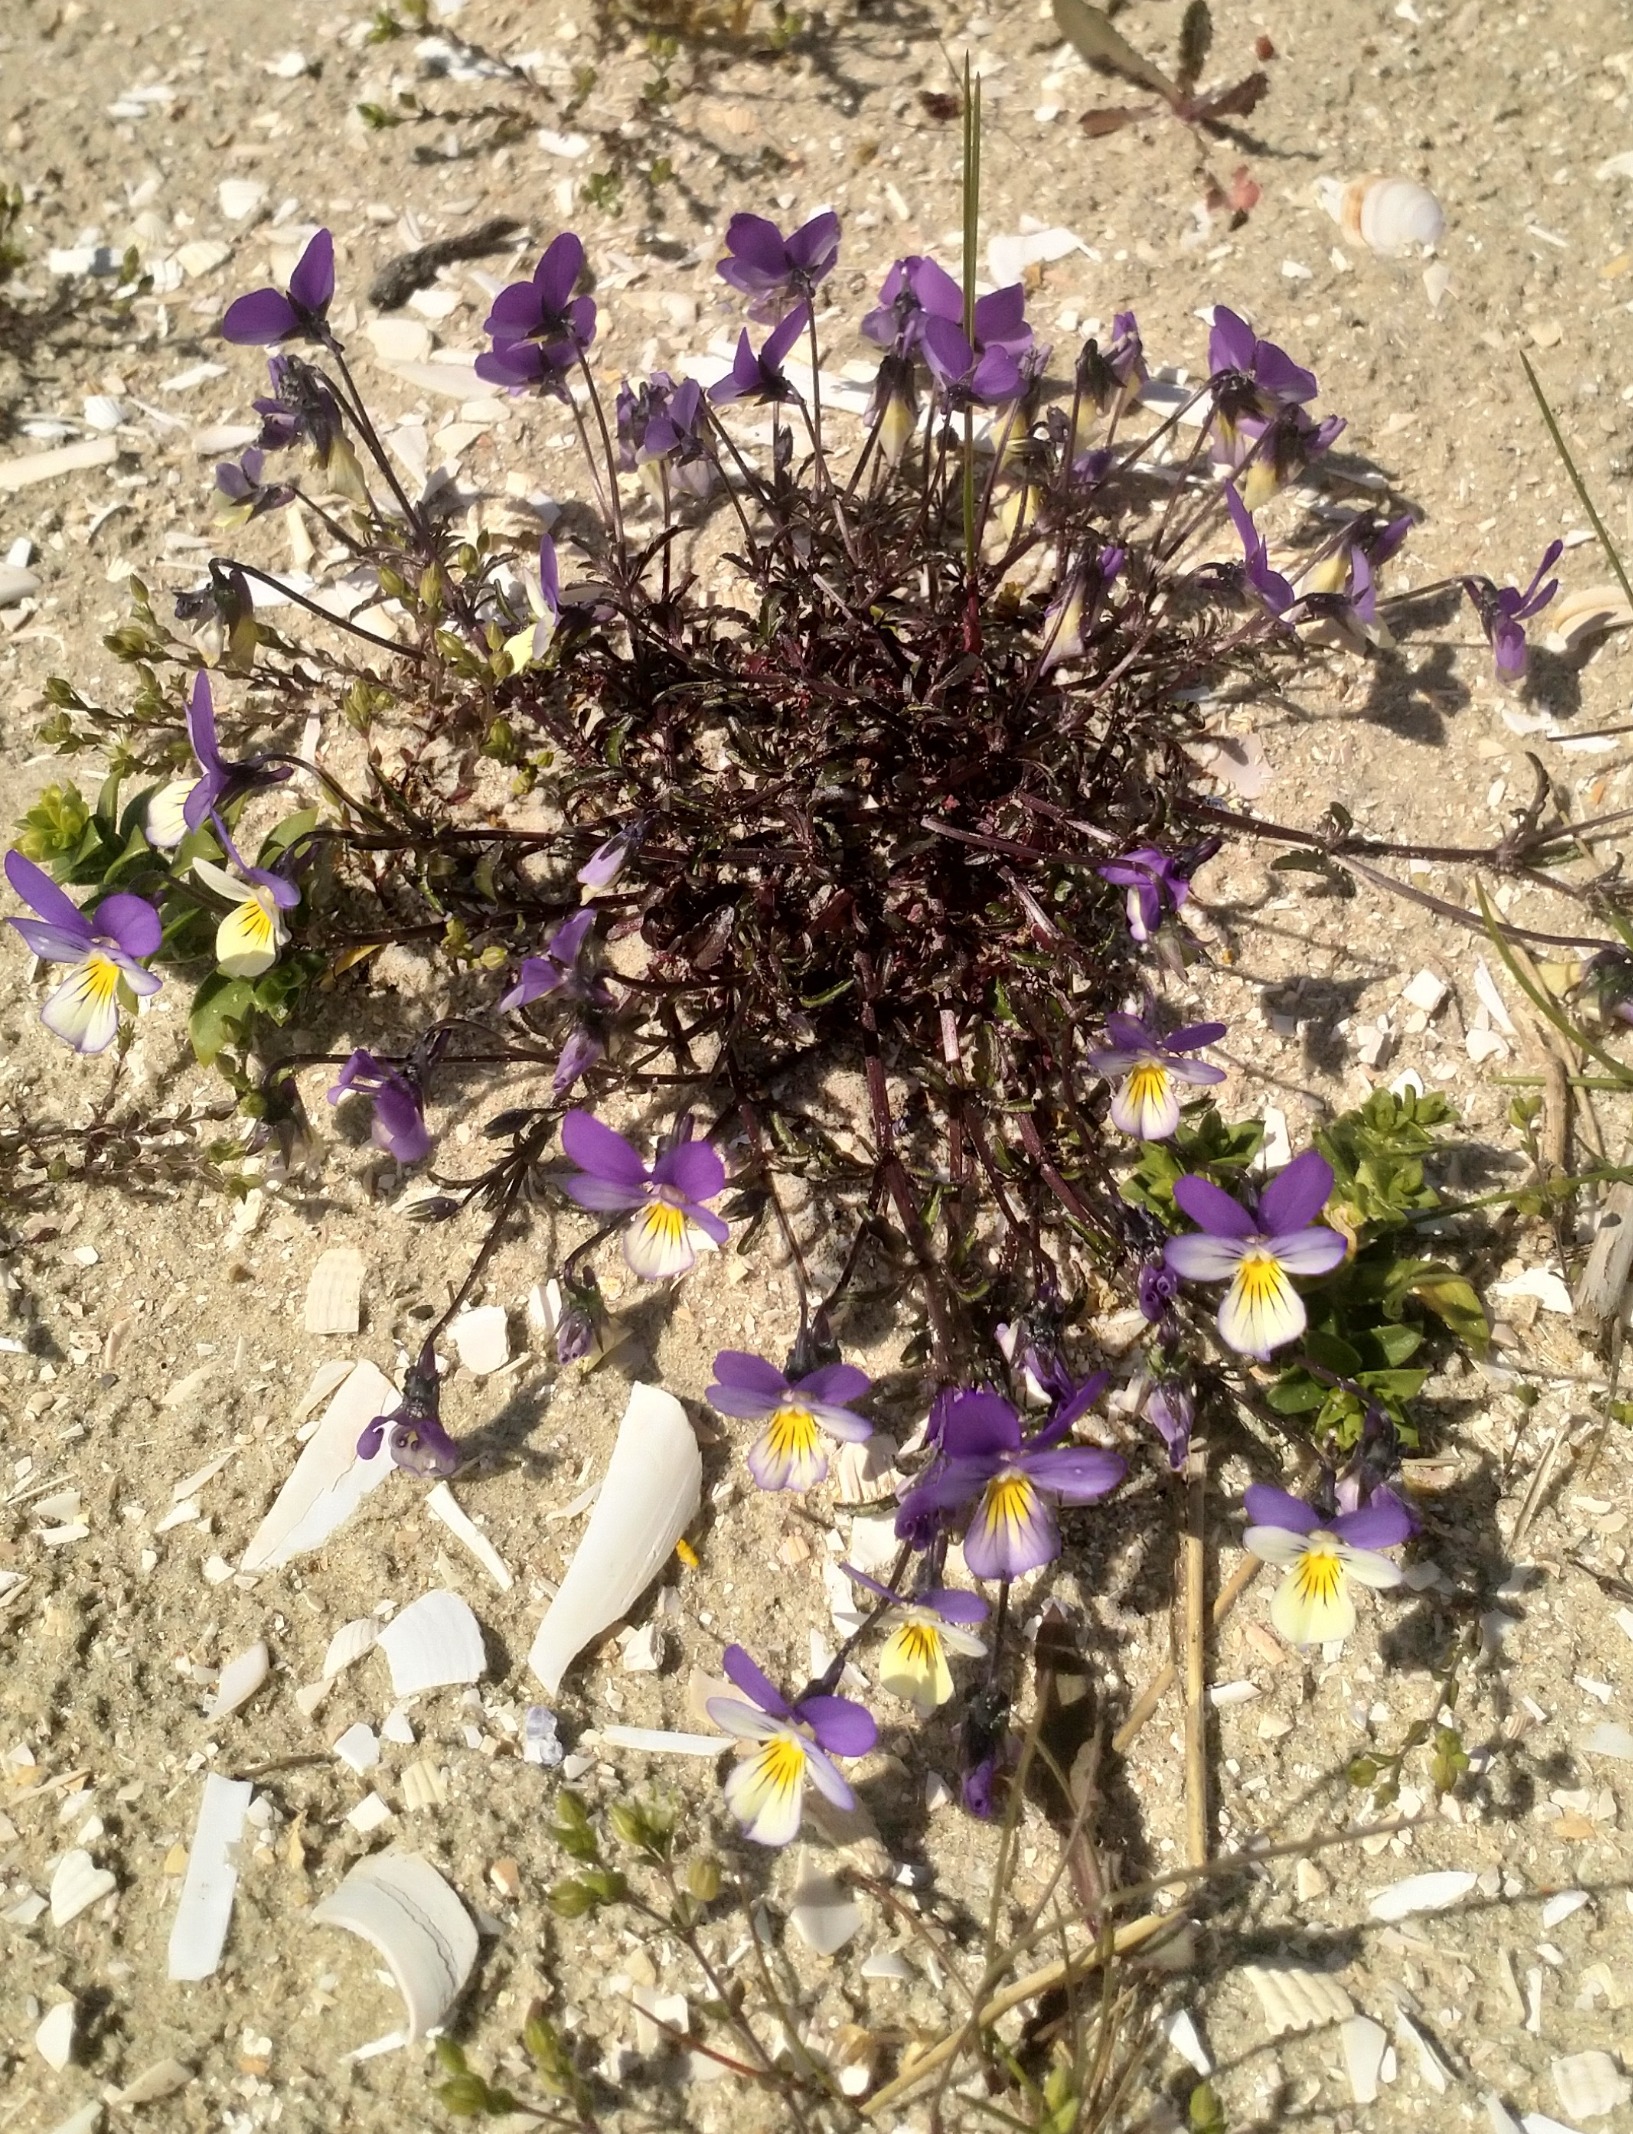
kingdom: Plantae
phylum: Tracheophyta
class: Magnoliopsida
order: Malpighiales
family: Violaceae
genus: Viola
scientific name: Viola tricolor
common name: Stedmoderblomst
